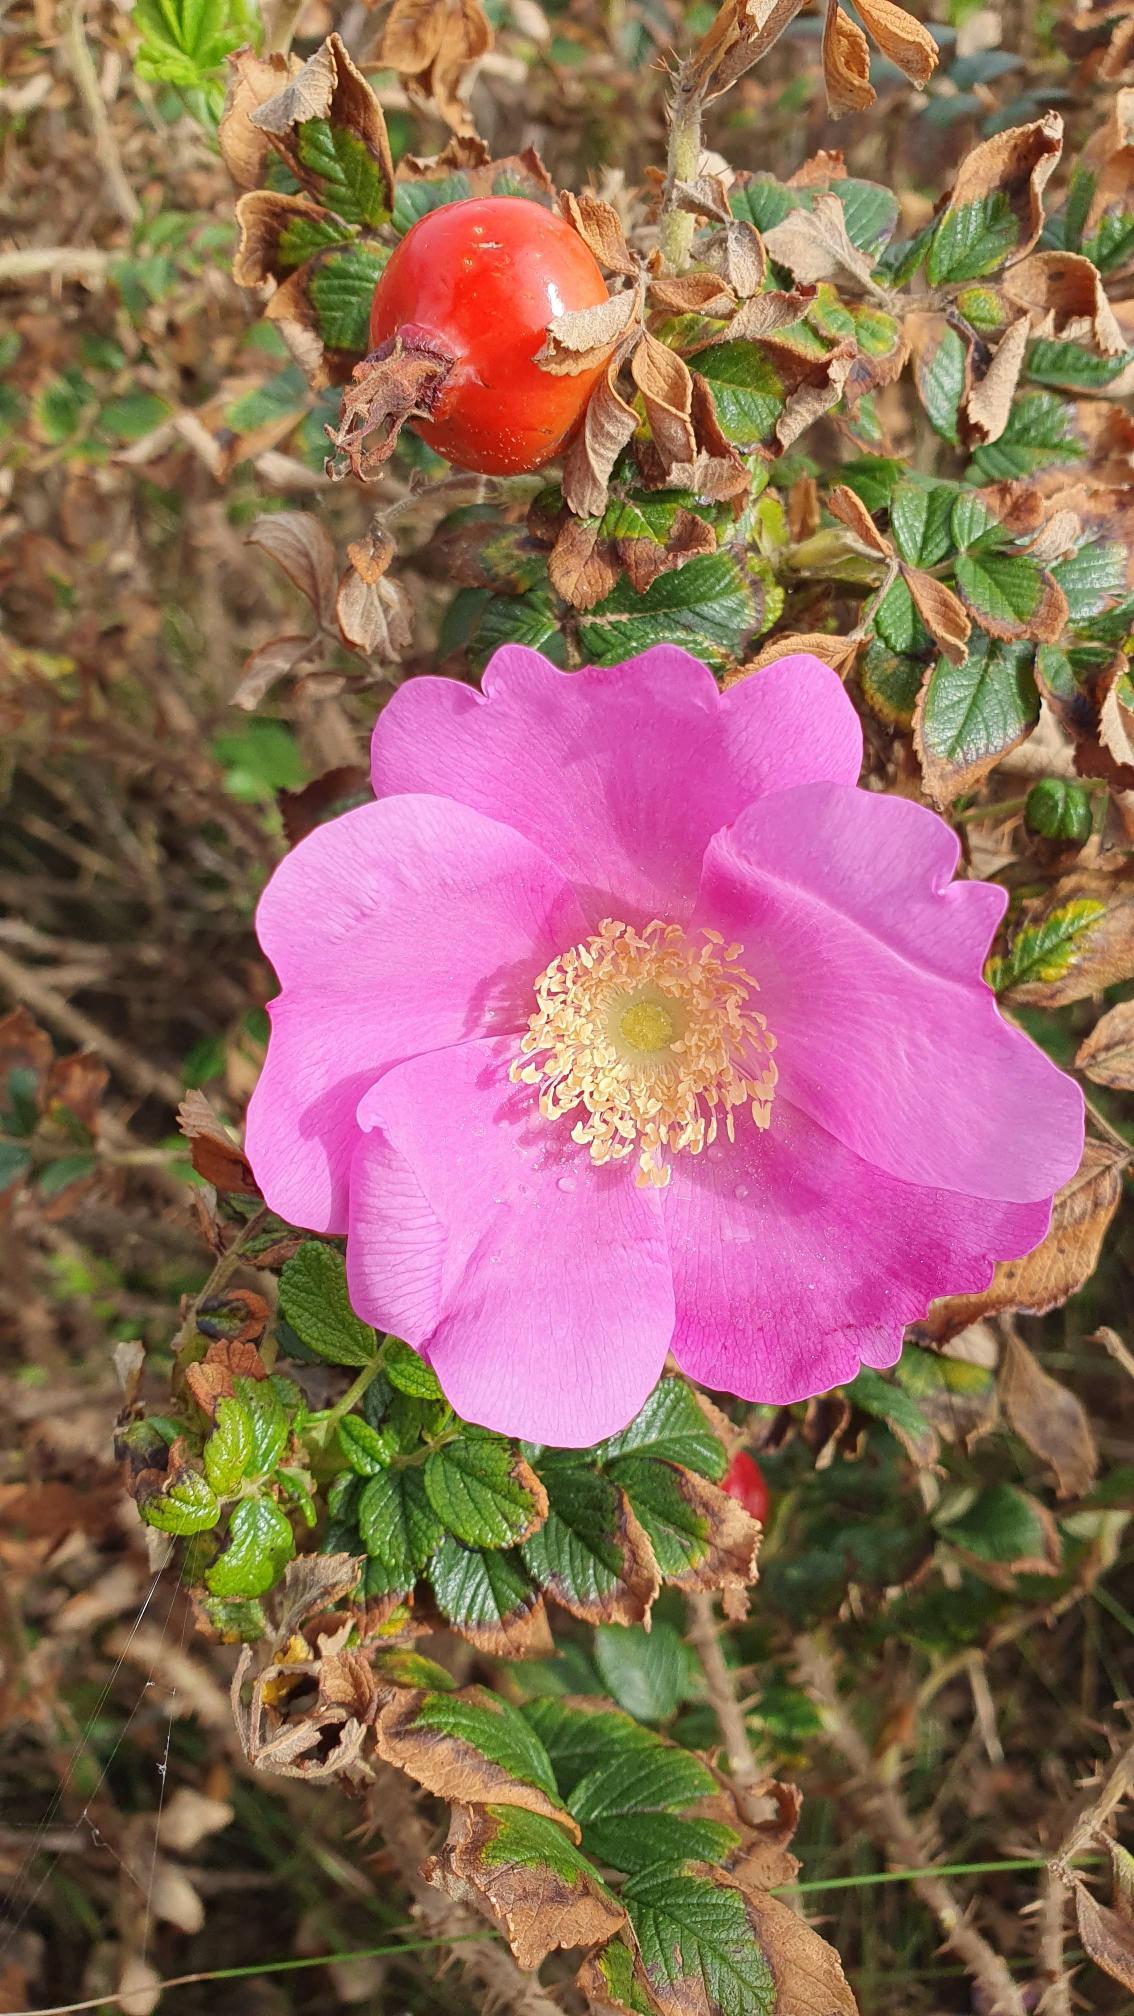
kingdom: Plantae
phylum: Tracheophyta
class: Magnoliopsida
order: Rosales
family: Rosaceae
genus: Rosa
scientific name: Rosa rugosa
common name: Rynket rose
